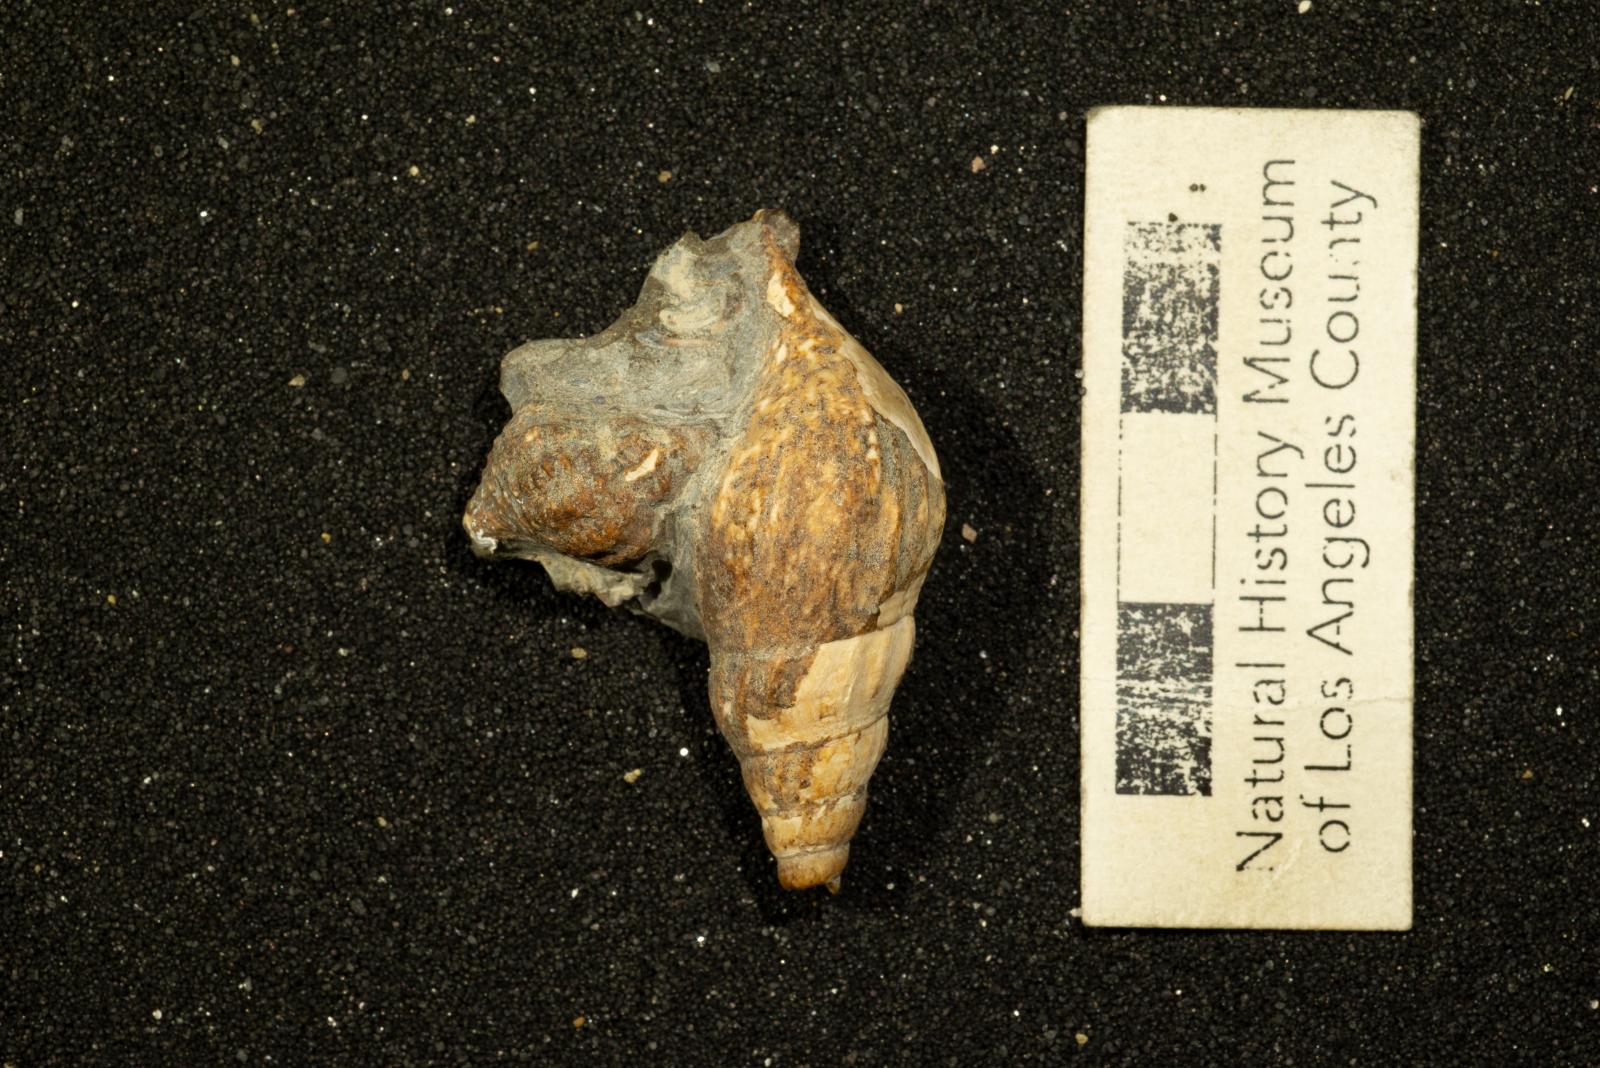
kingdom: Animalia
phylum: Mollusca
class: Gastropoda
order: Littorinimorpha
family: Aporrhaidae
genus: Latiala
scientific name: Latiala Alaria nodosa
